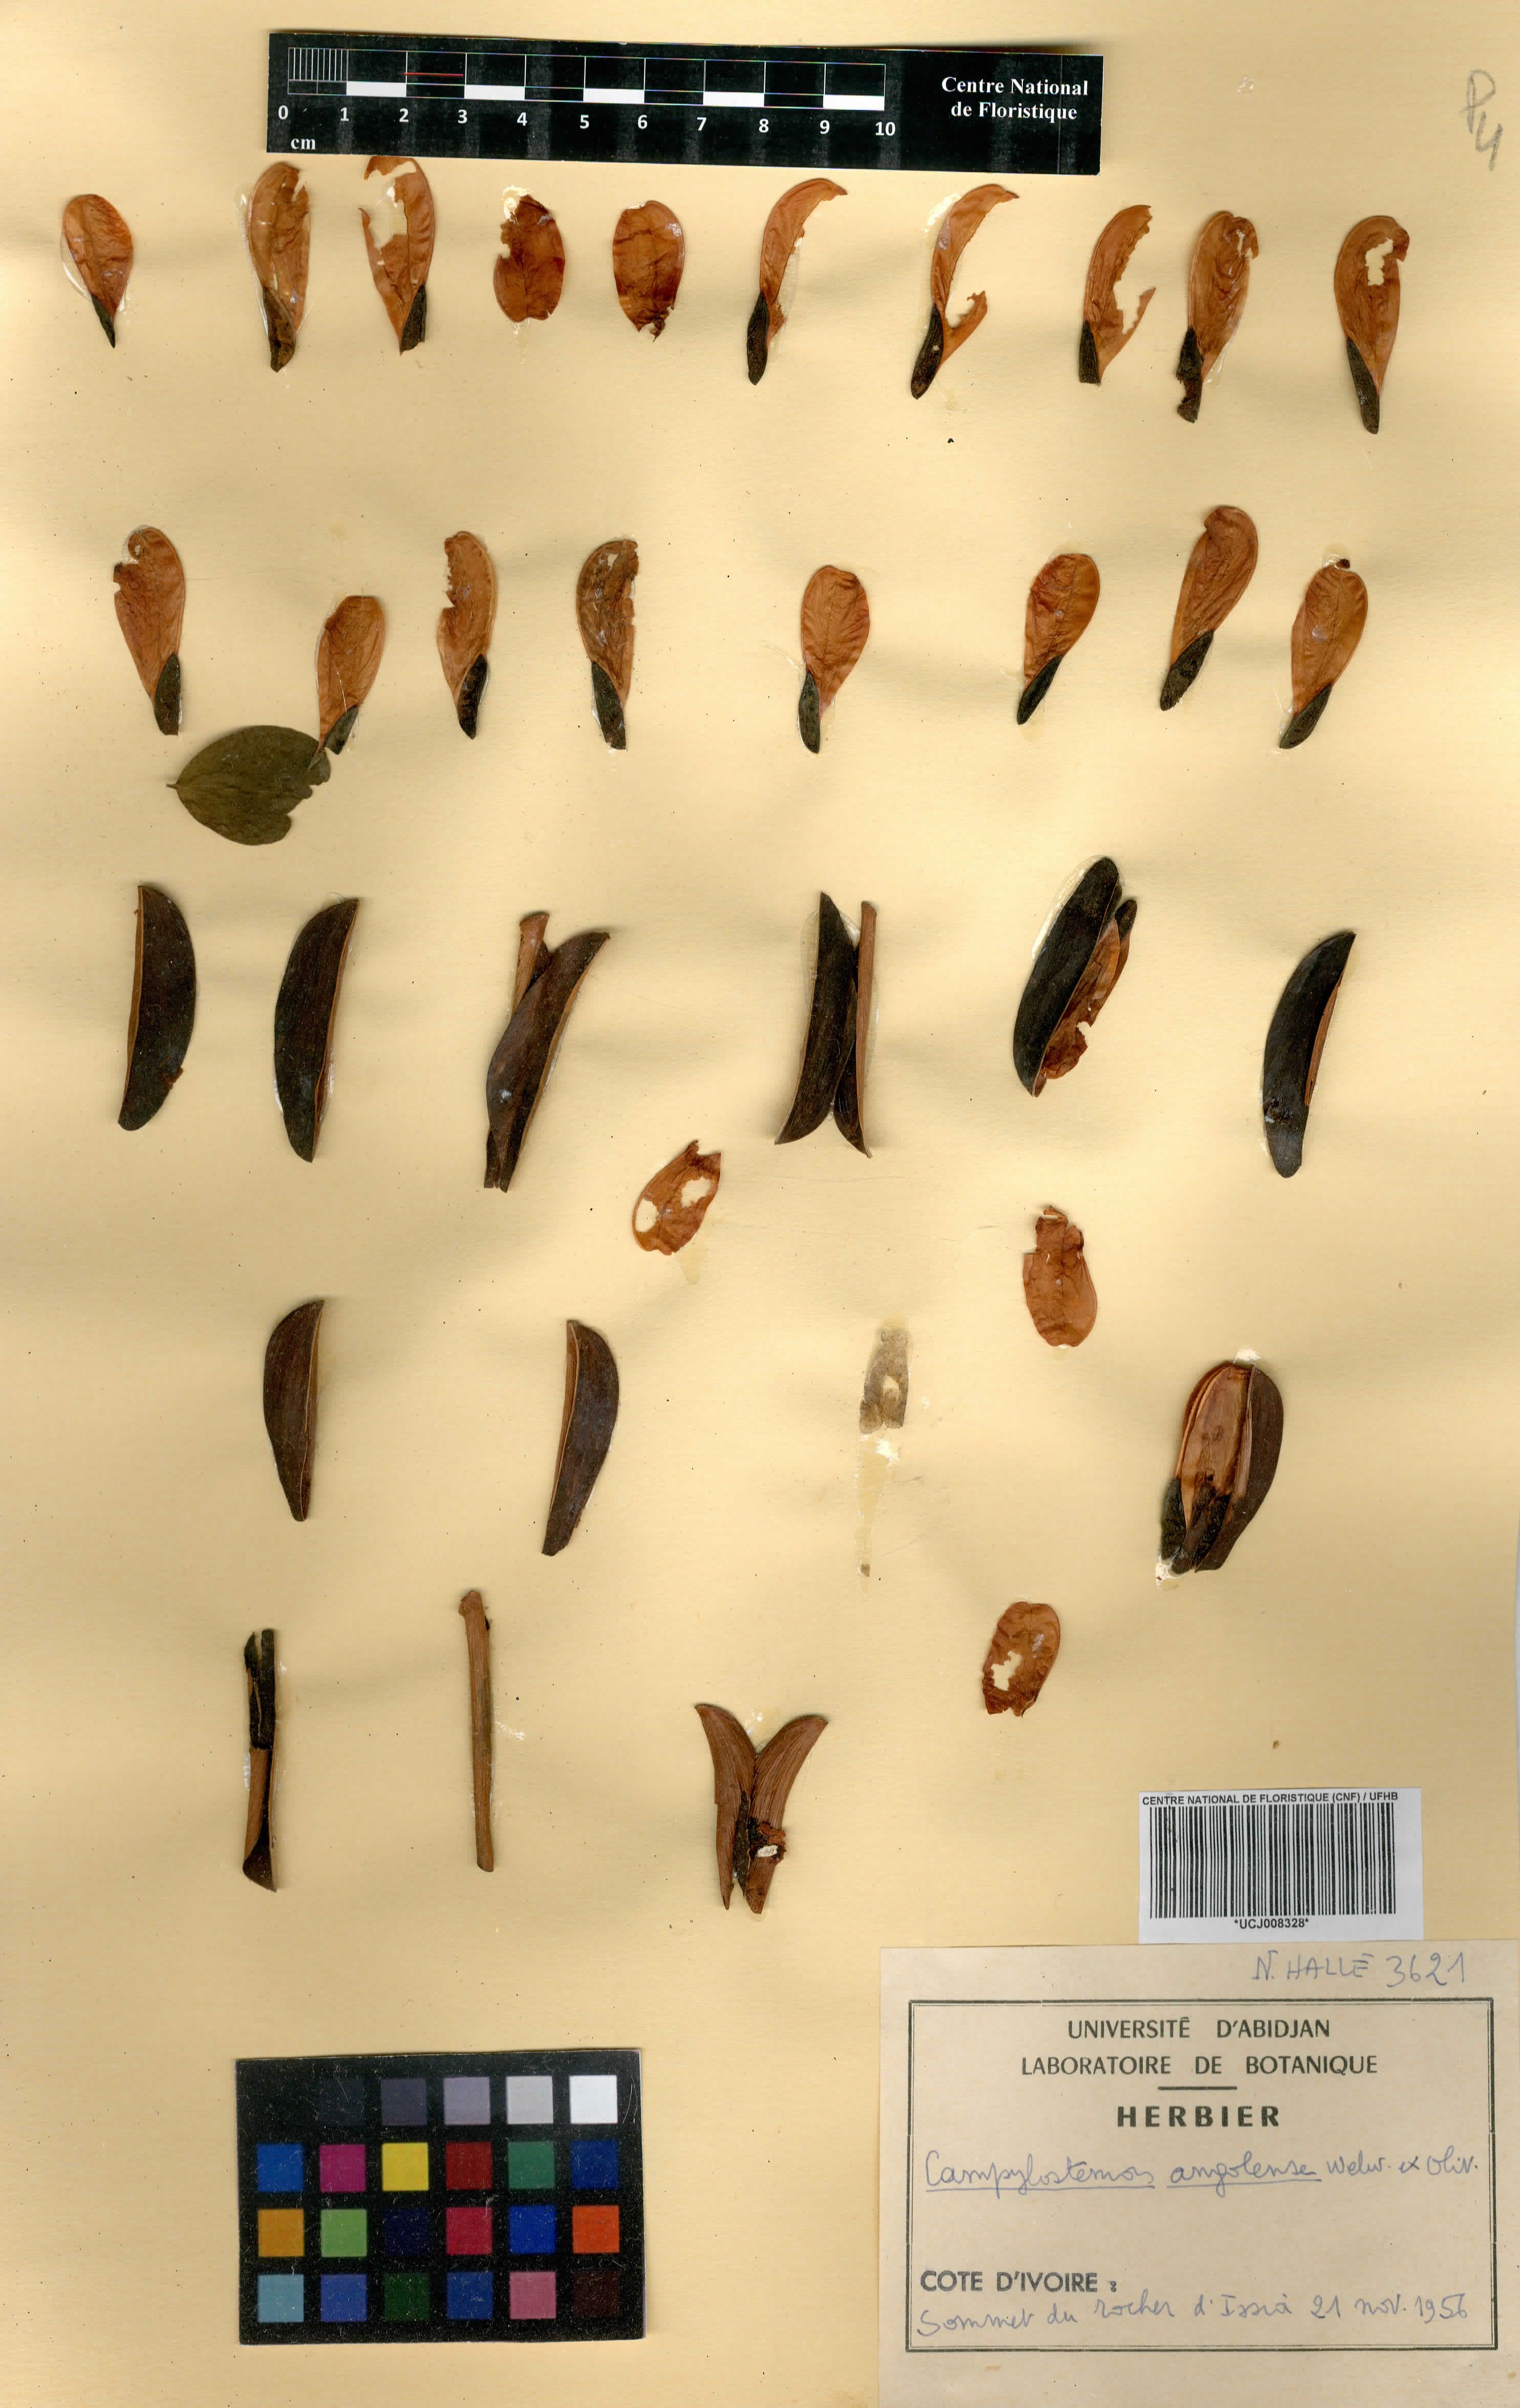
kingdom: Plantae
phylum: Tracheophyta
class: Magnoliopsida
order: Celastrales
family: Celastraceae
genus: Campylostemon
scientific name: Campylostemon angolense
